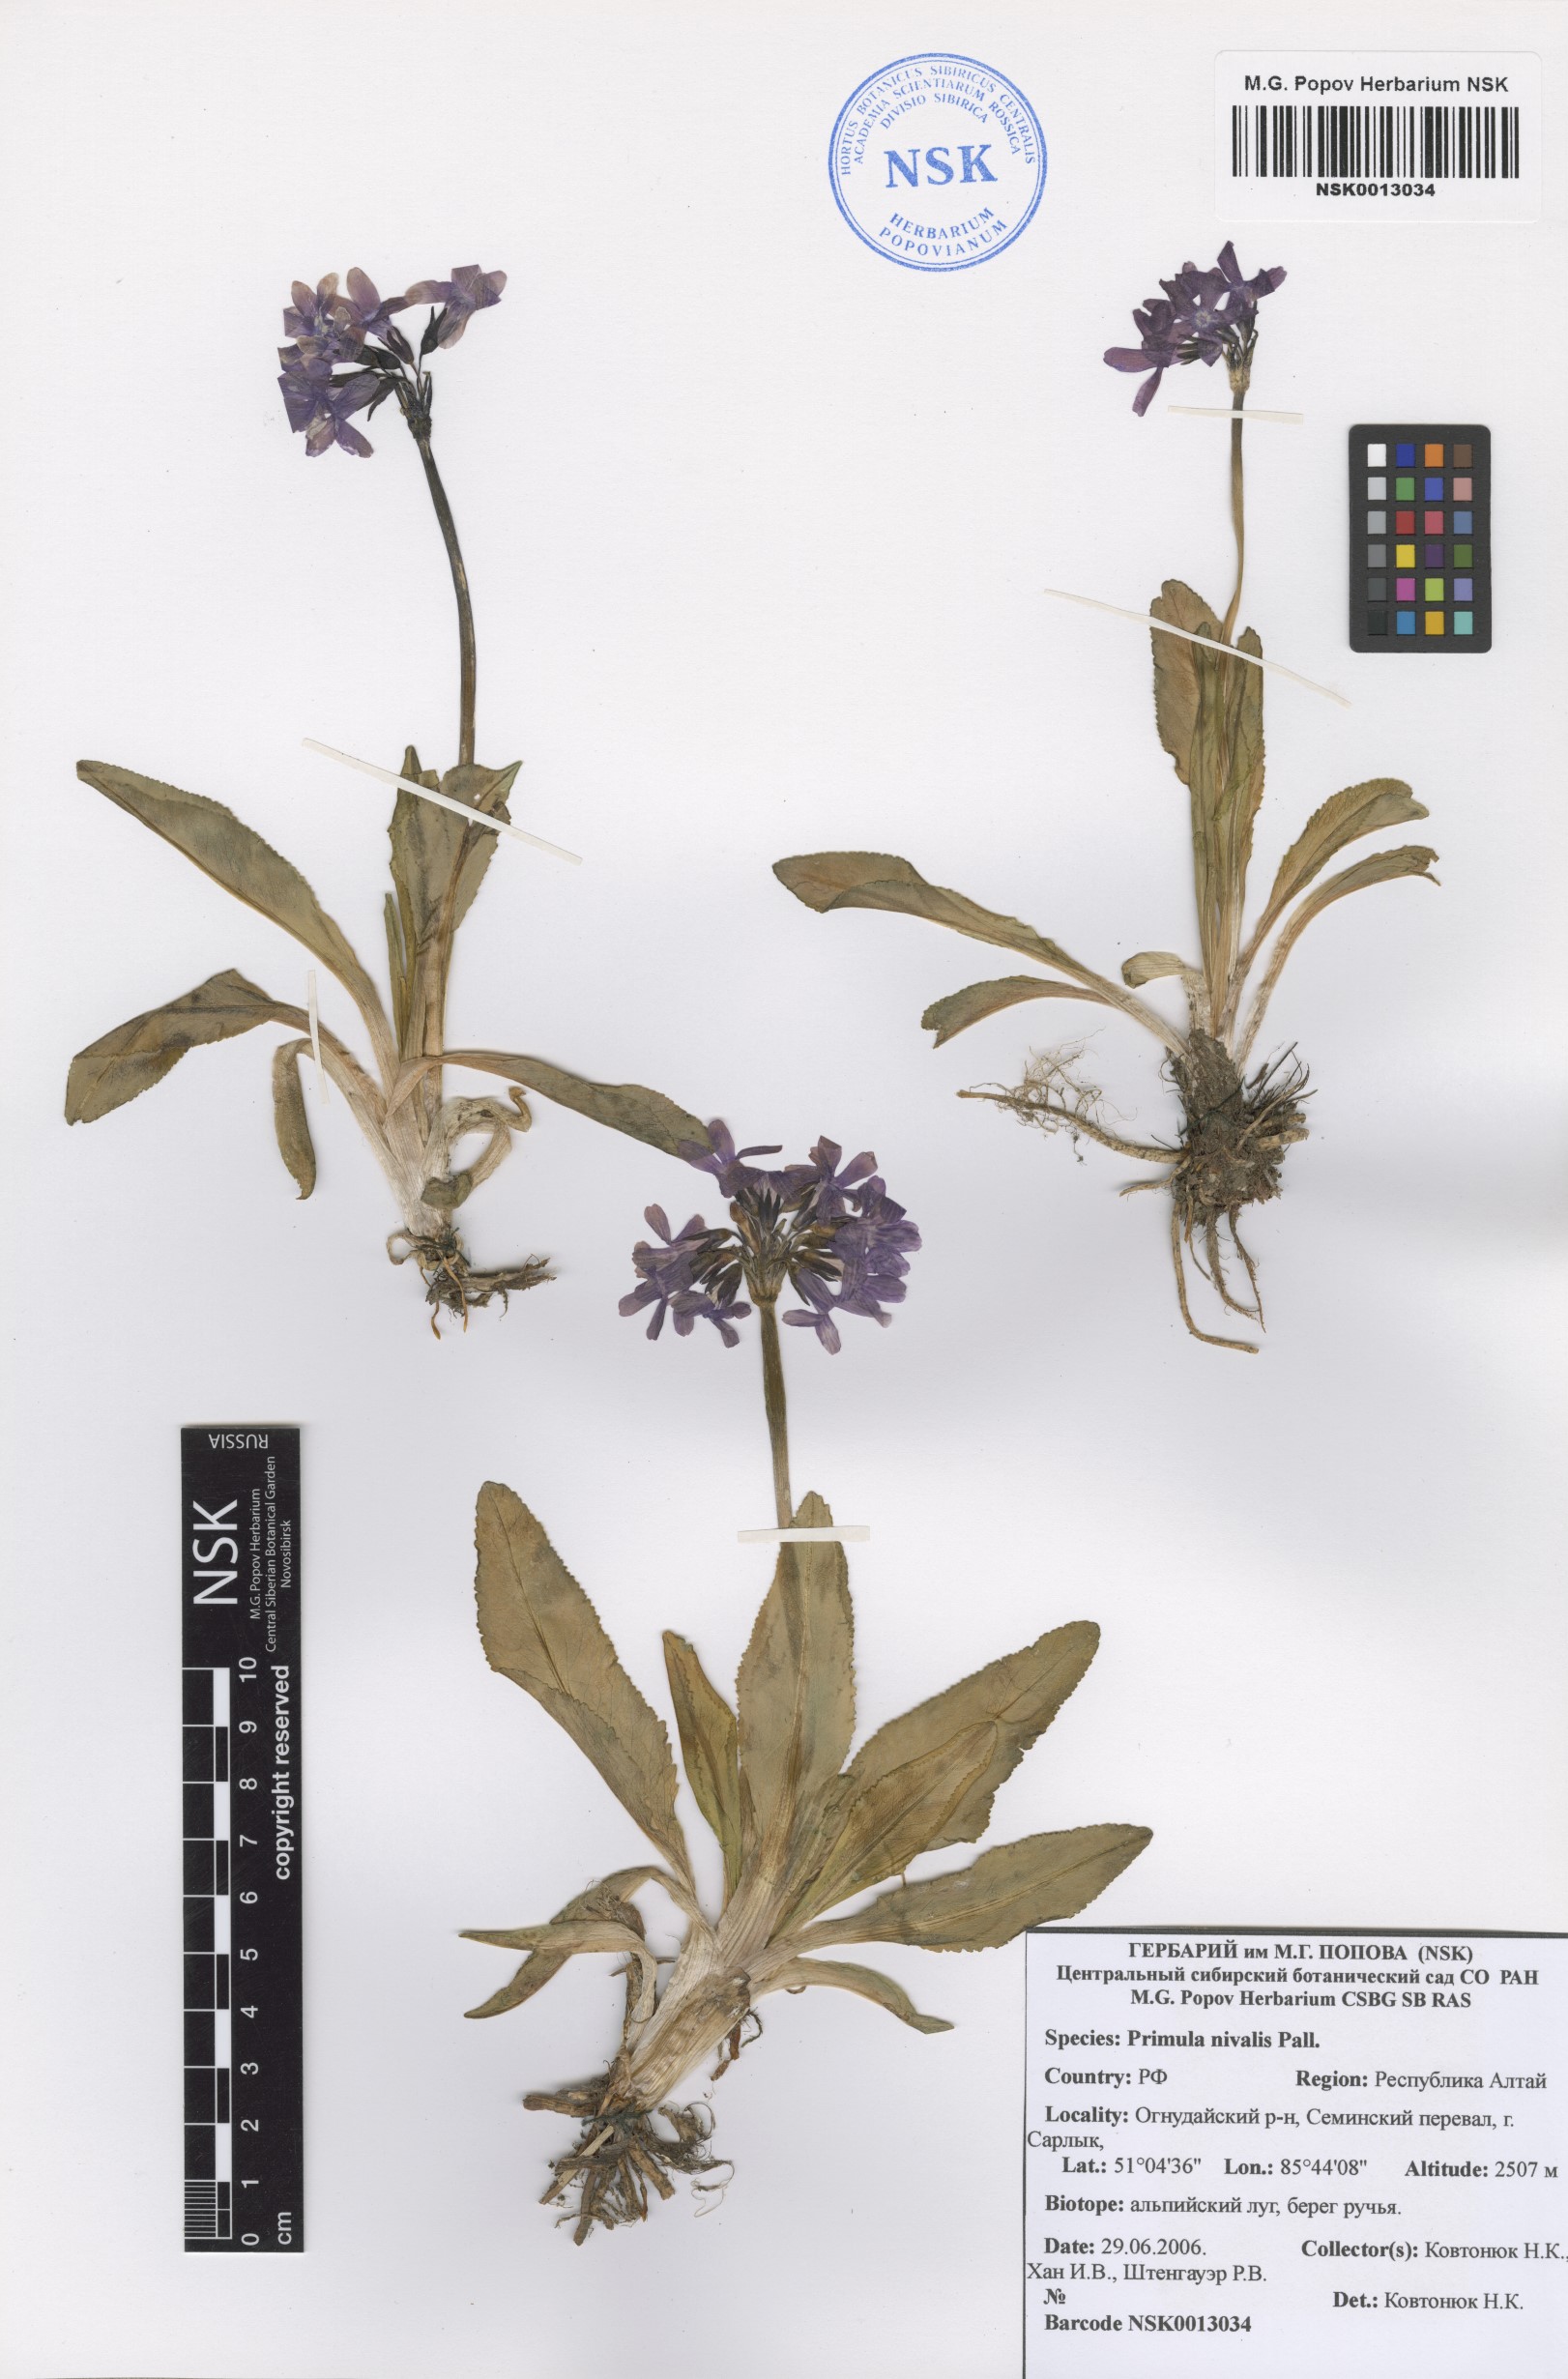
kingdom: Plantae
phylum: Tracheophyta
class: Magnoliopsida
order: Ericales
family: Primulaceae
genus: Primula
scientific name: Primula nivalis
